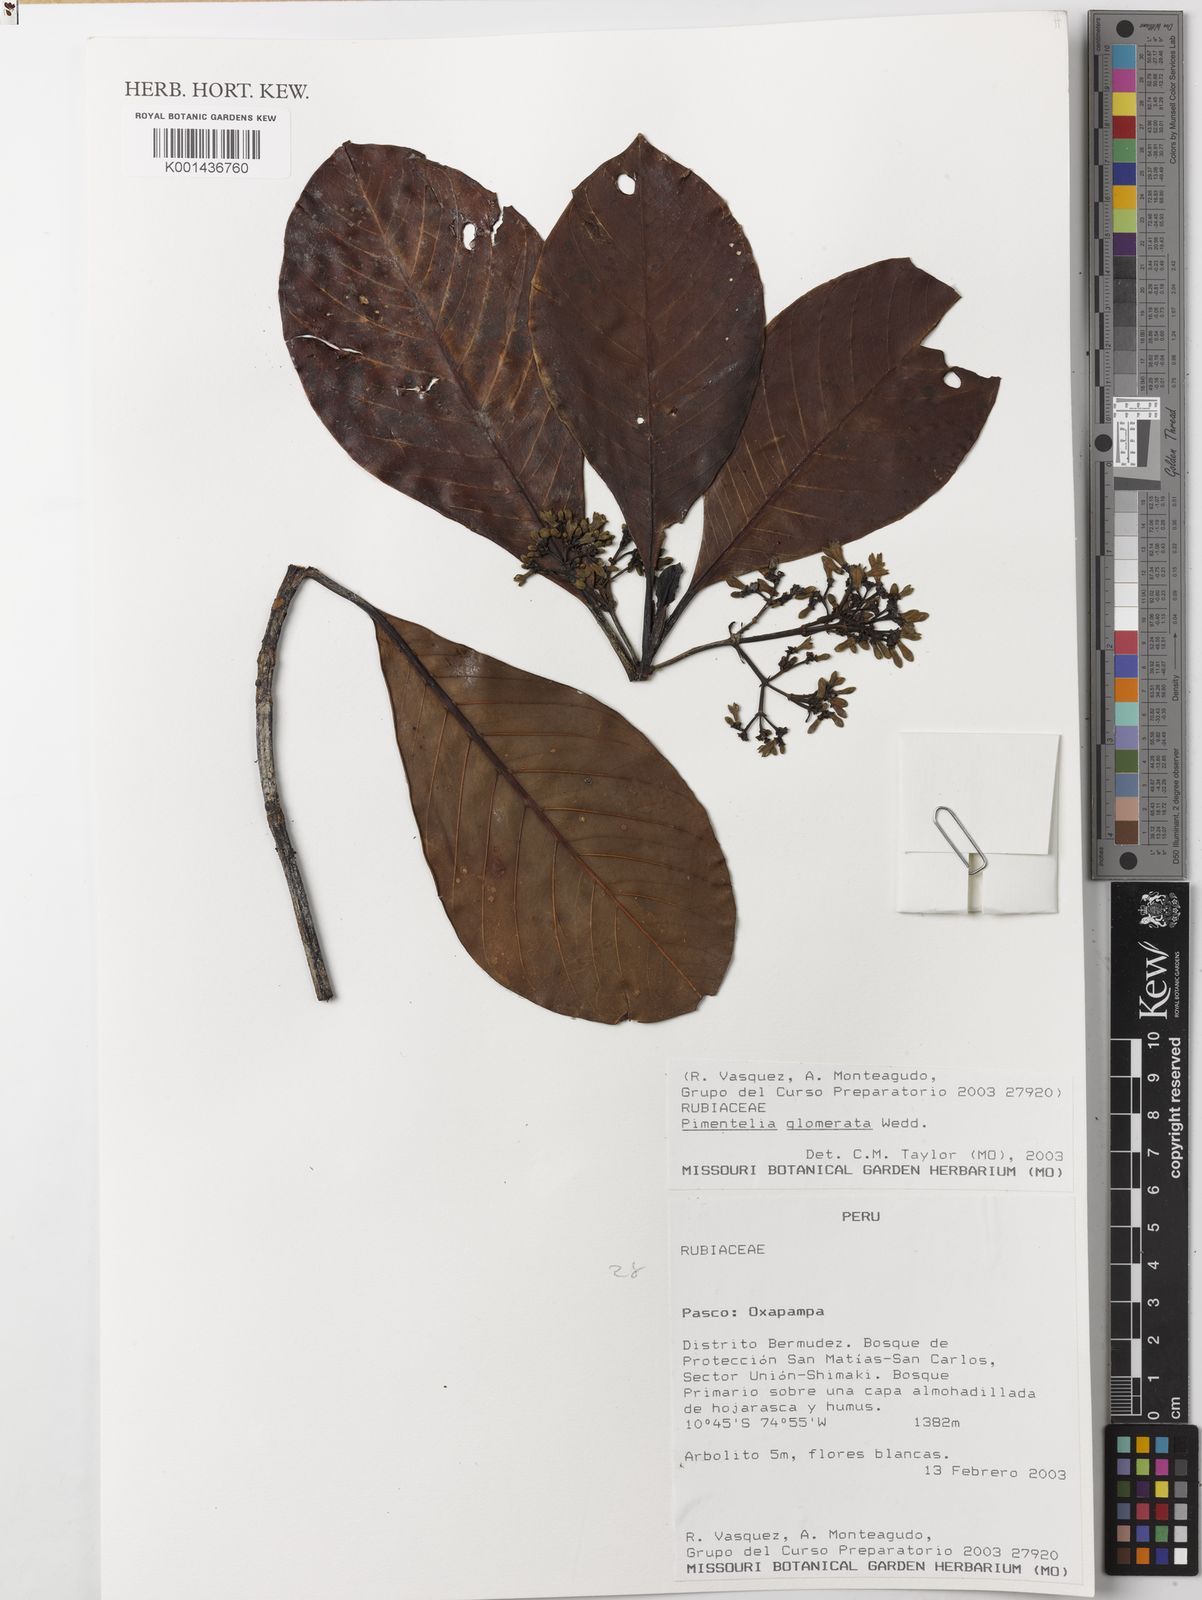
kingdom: Plantae
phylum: Tracheophyta
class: Magnoliopsida
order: Gentianales
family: Rubiaceae
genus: Pimentelia
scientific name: Pimentelia glomerata
